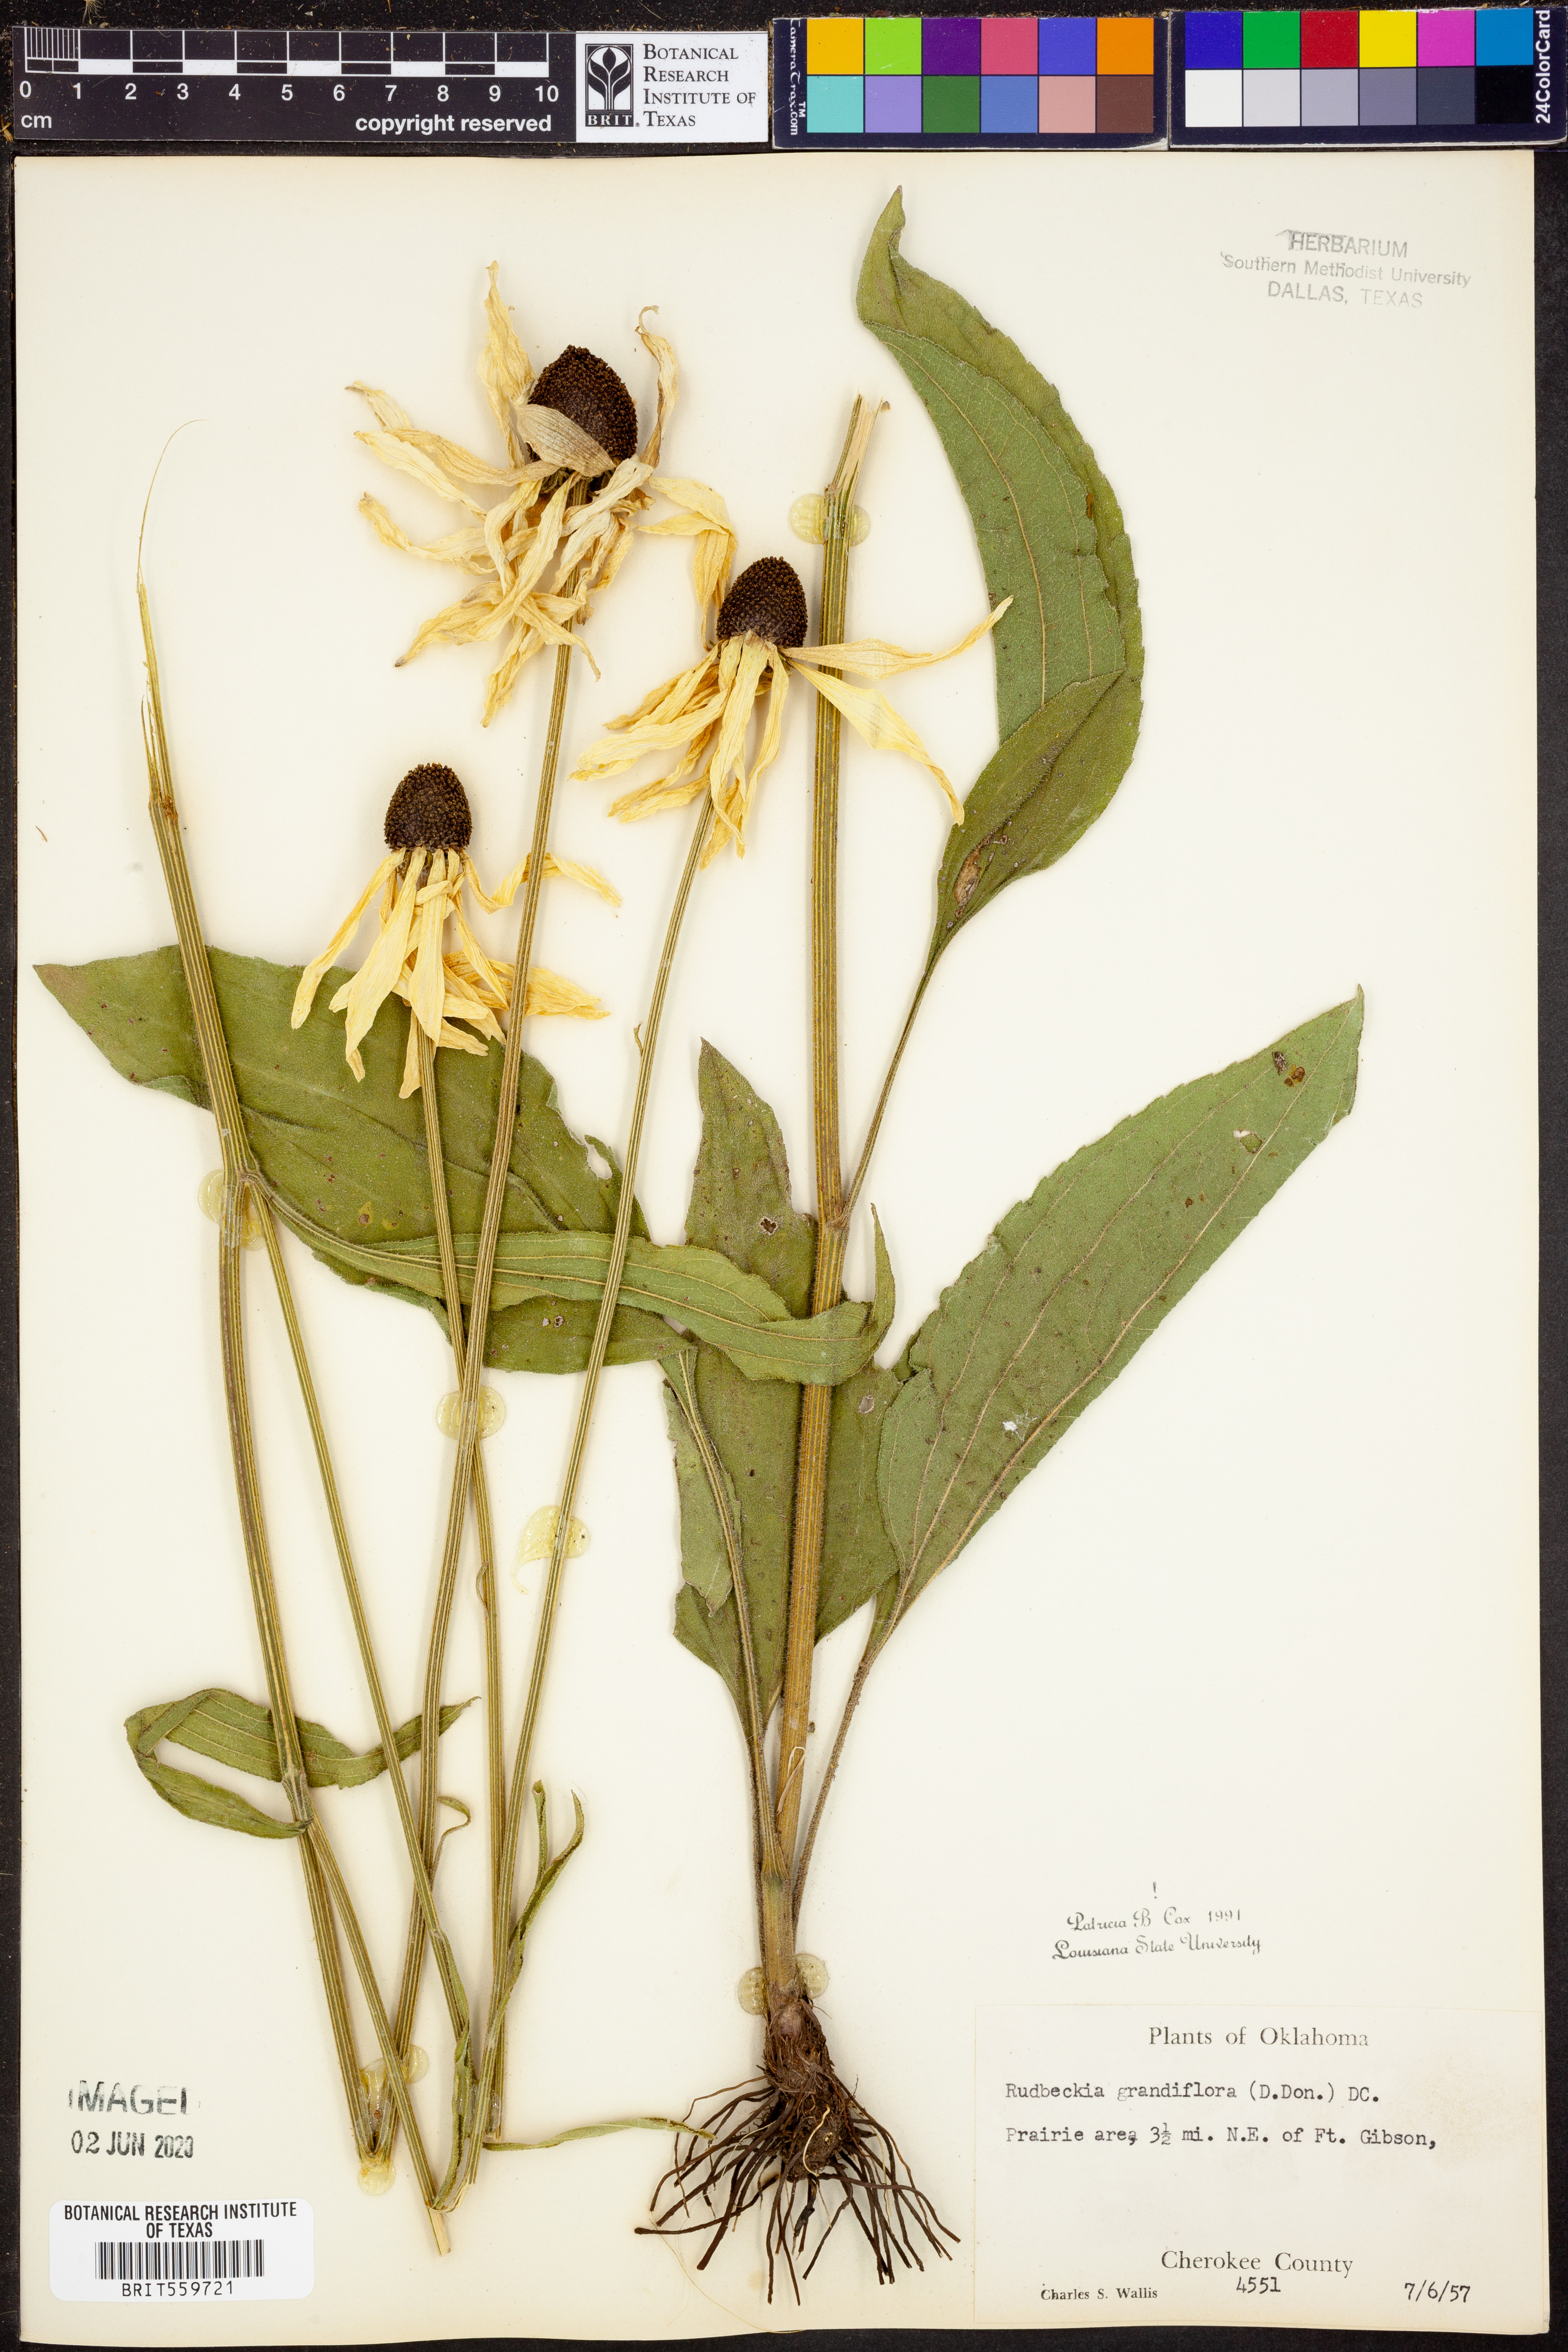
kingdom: Plantae
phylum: Tracheophyta
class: Magnoliopsida
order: Asterales
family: Asteraceae
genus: Rudbeckia
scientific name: Rudbeckia grandiflora
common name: Large-flowered coneflower
